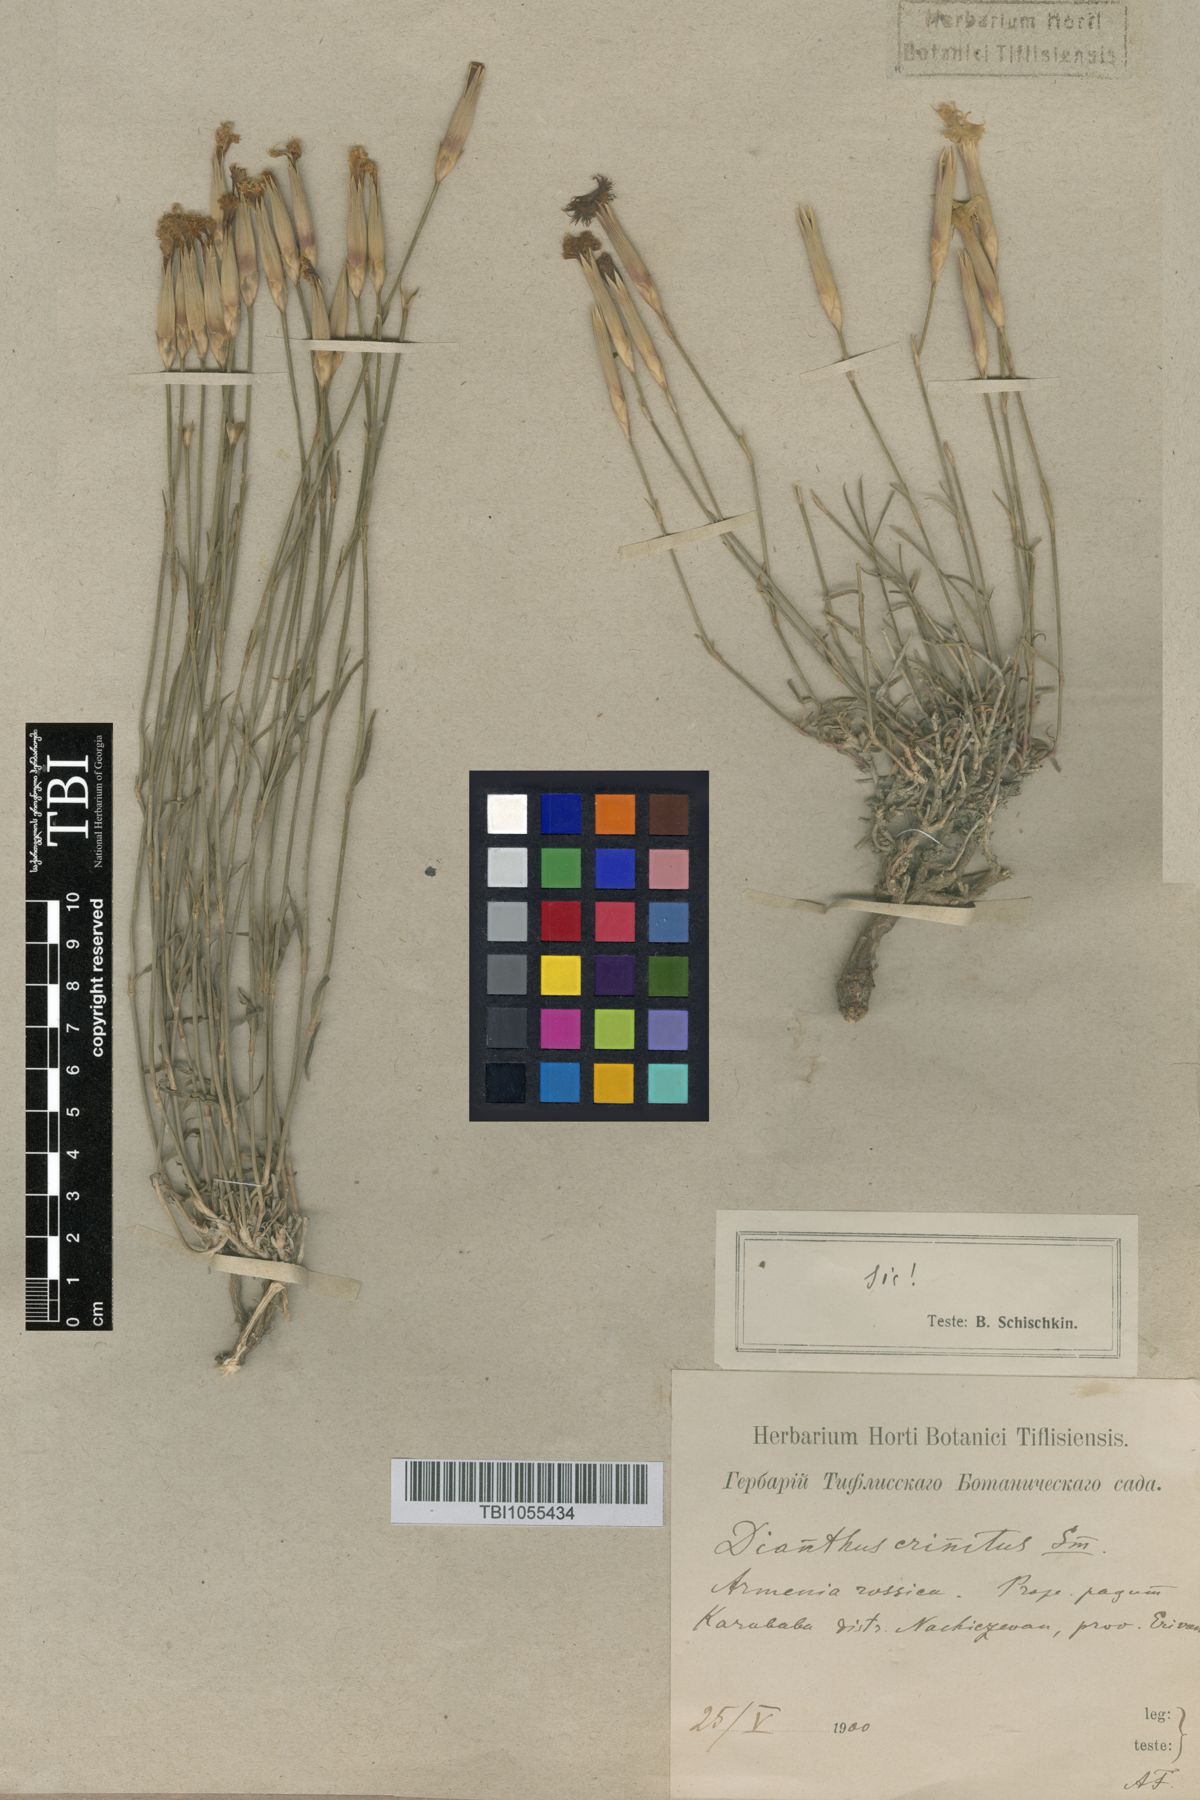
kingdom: Plantae
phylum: Tracheophyta
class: Magnoliopsida
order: Caryophyllales
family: Caryophyllaceae
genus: Dianthus
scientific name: Dianthus crinitus
